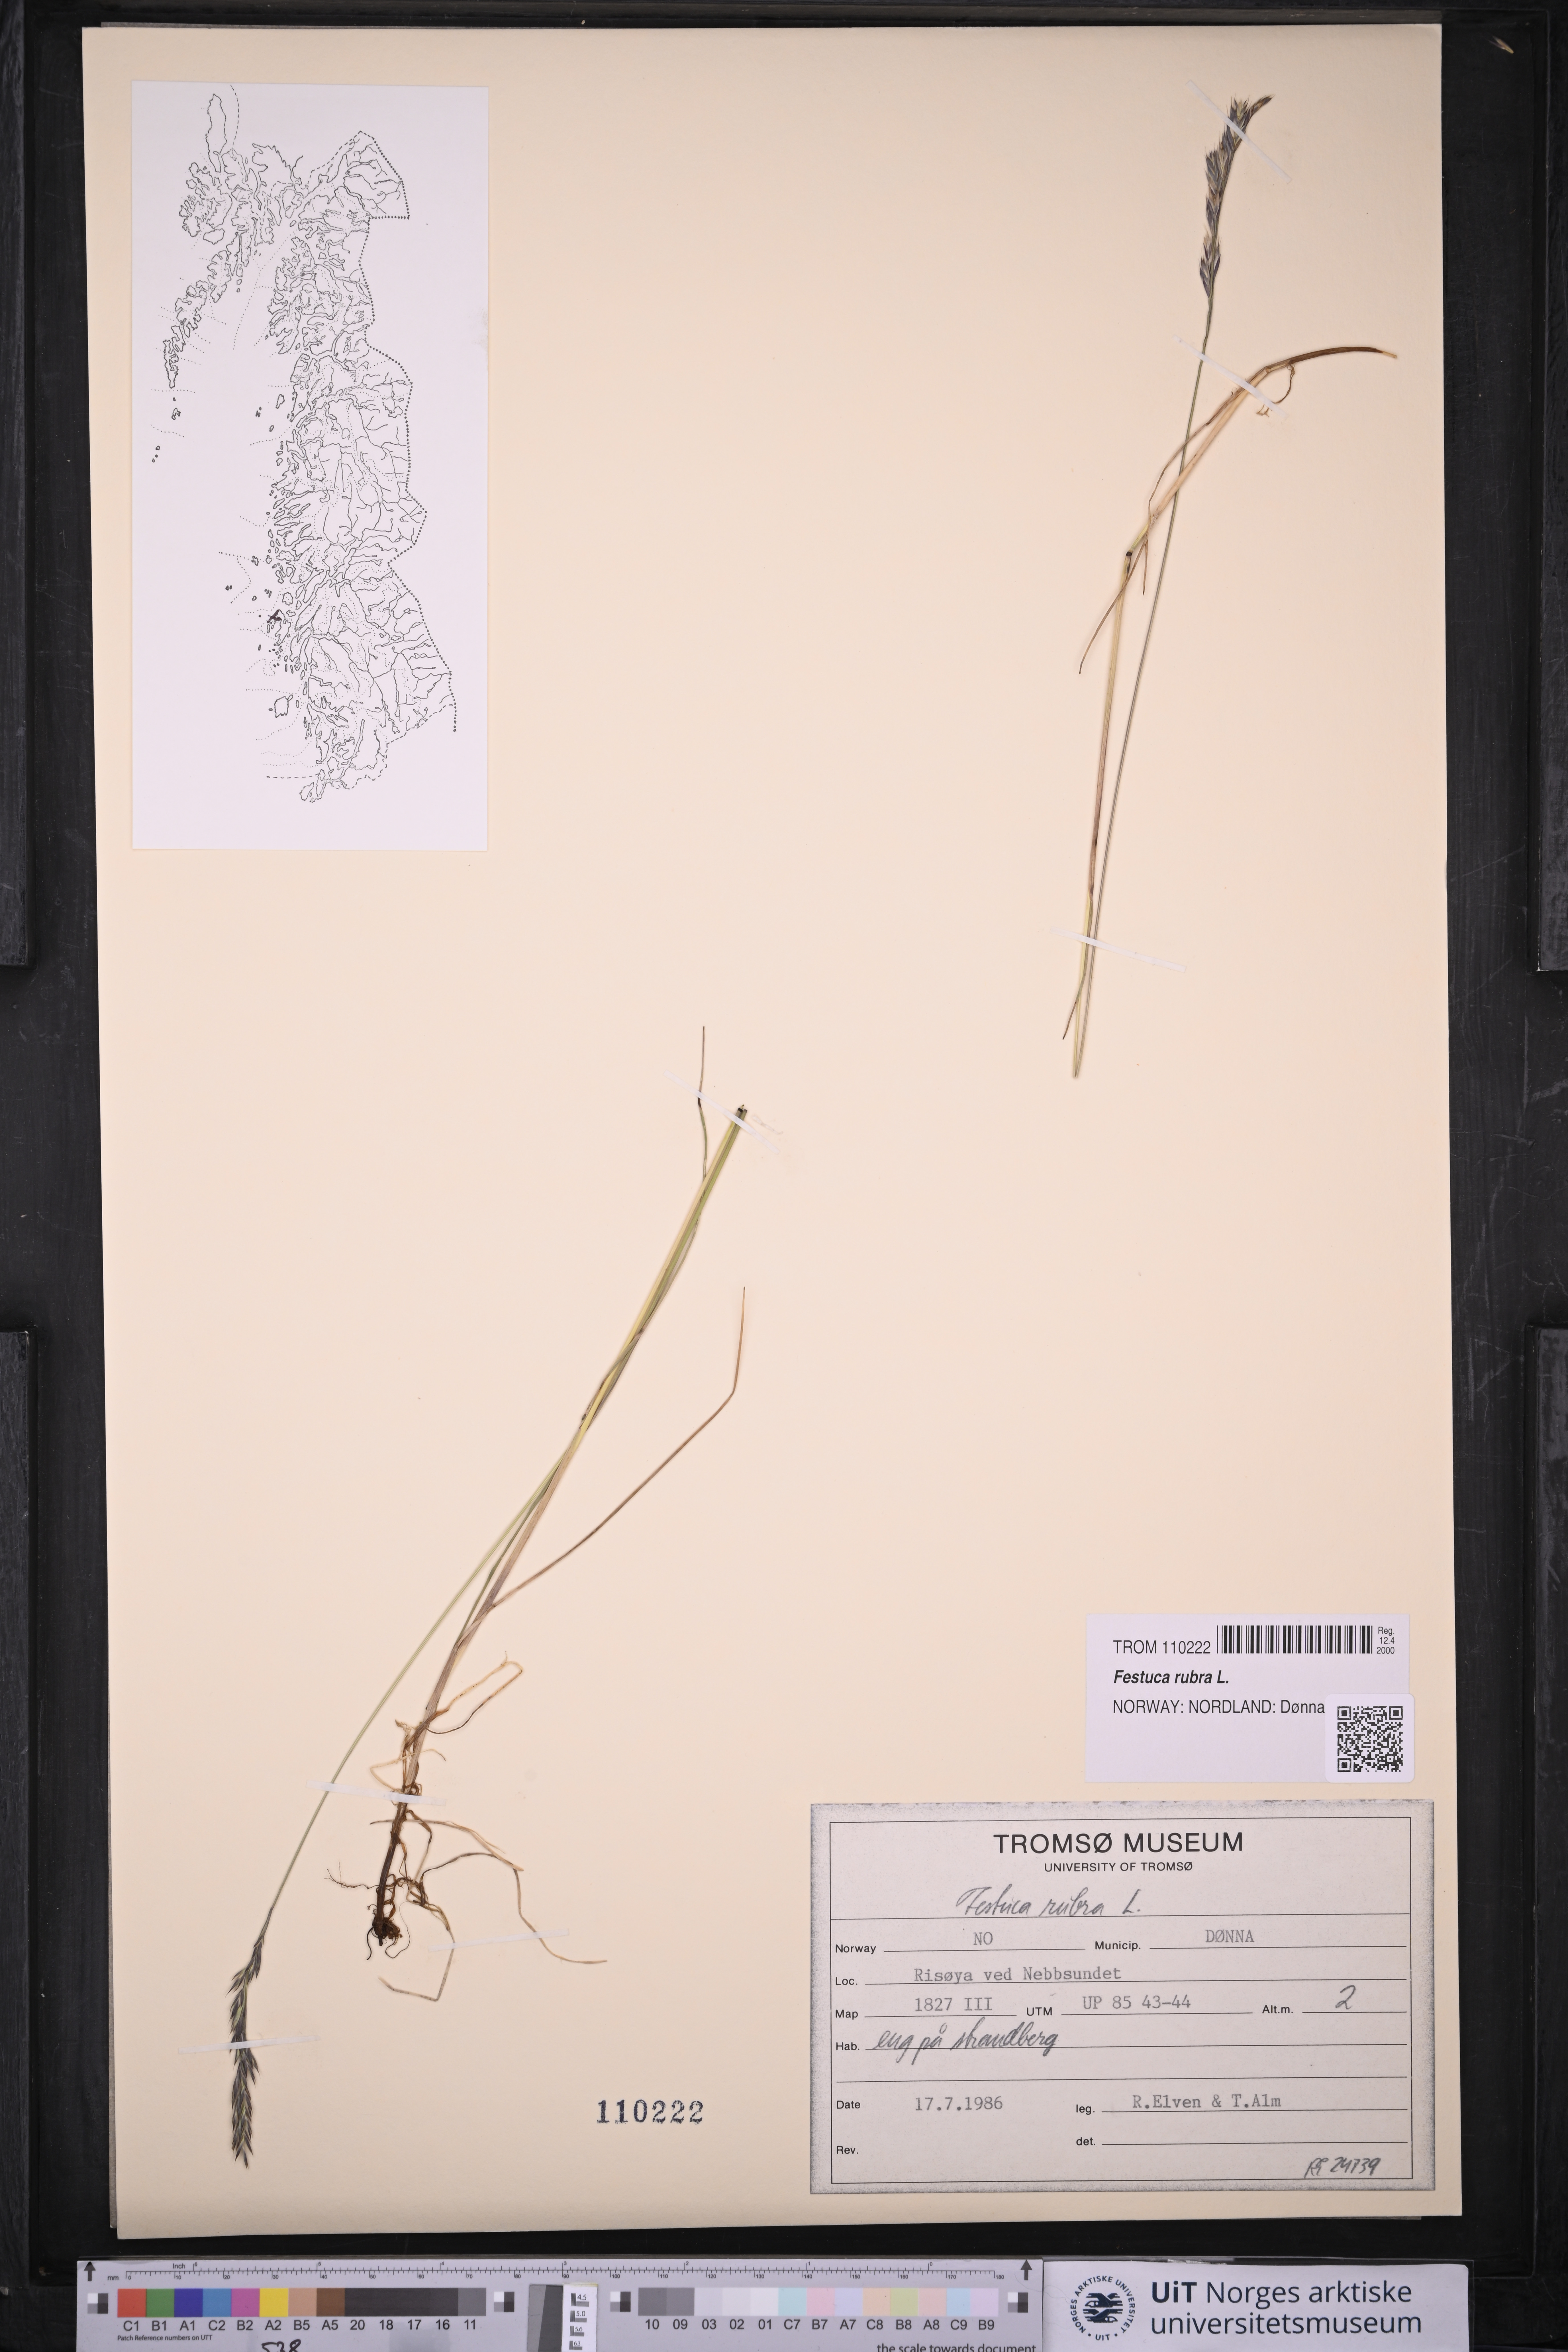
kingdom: Plantae
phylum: Tracheophyta
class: Liliopsida
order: Poales
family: Poaceae
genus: Festuca
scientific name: Festuca rubra
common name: Red fescue
